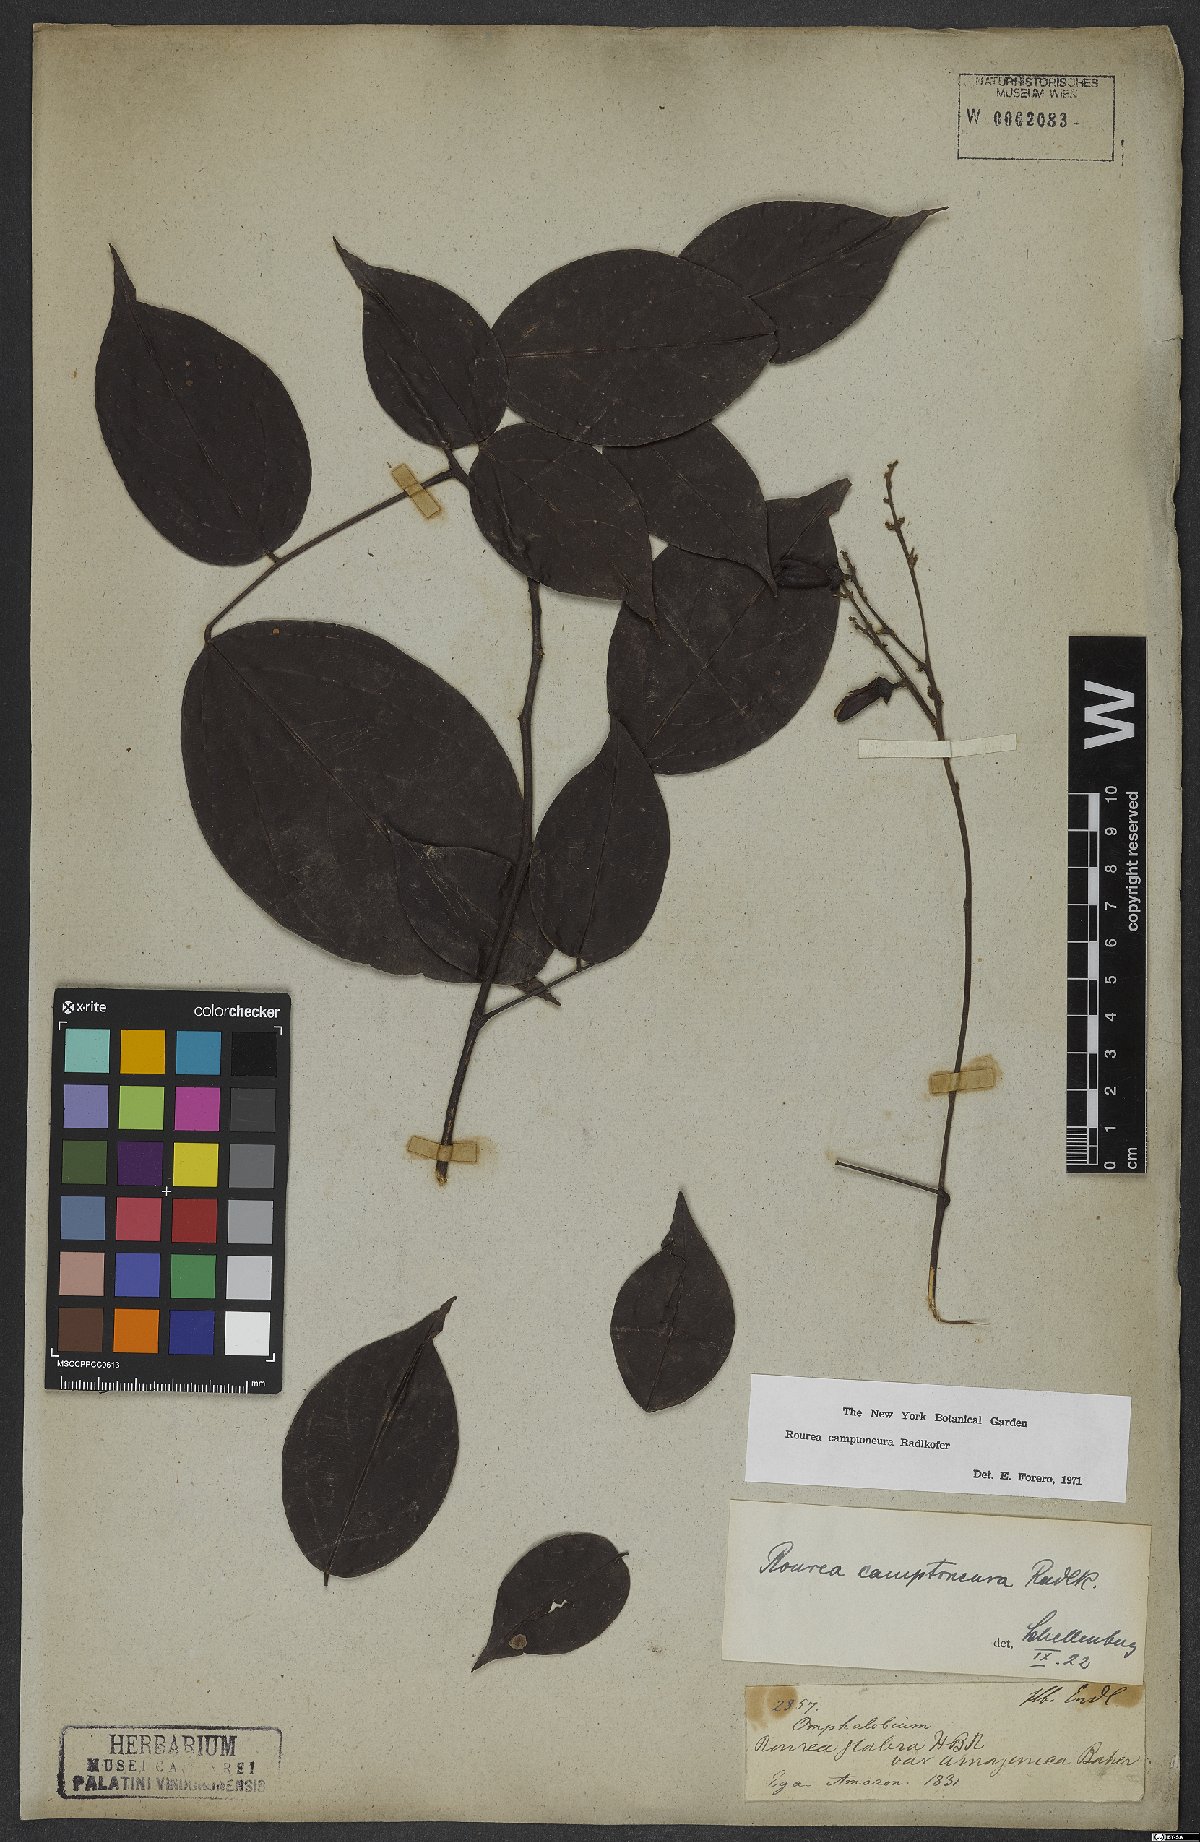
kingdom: Plantae
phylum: Tracheophyta
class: Magnoliopsida
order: Oxalidales
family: Connaraceae
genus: Rourea
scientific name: Rourea camptoneura
